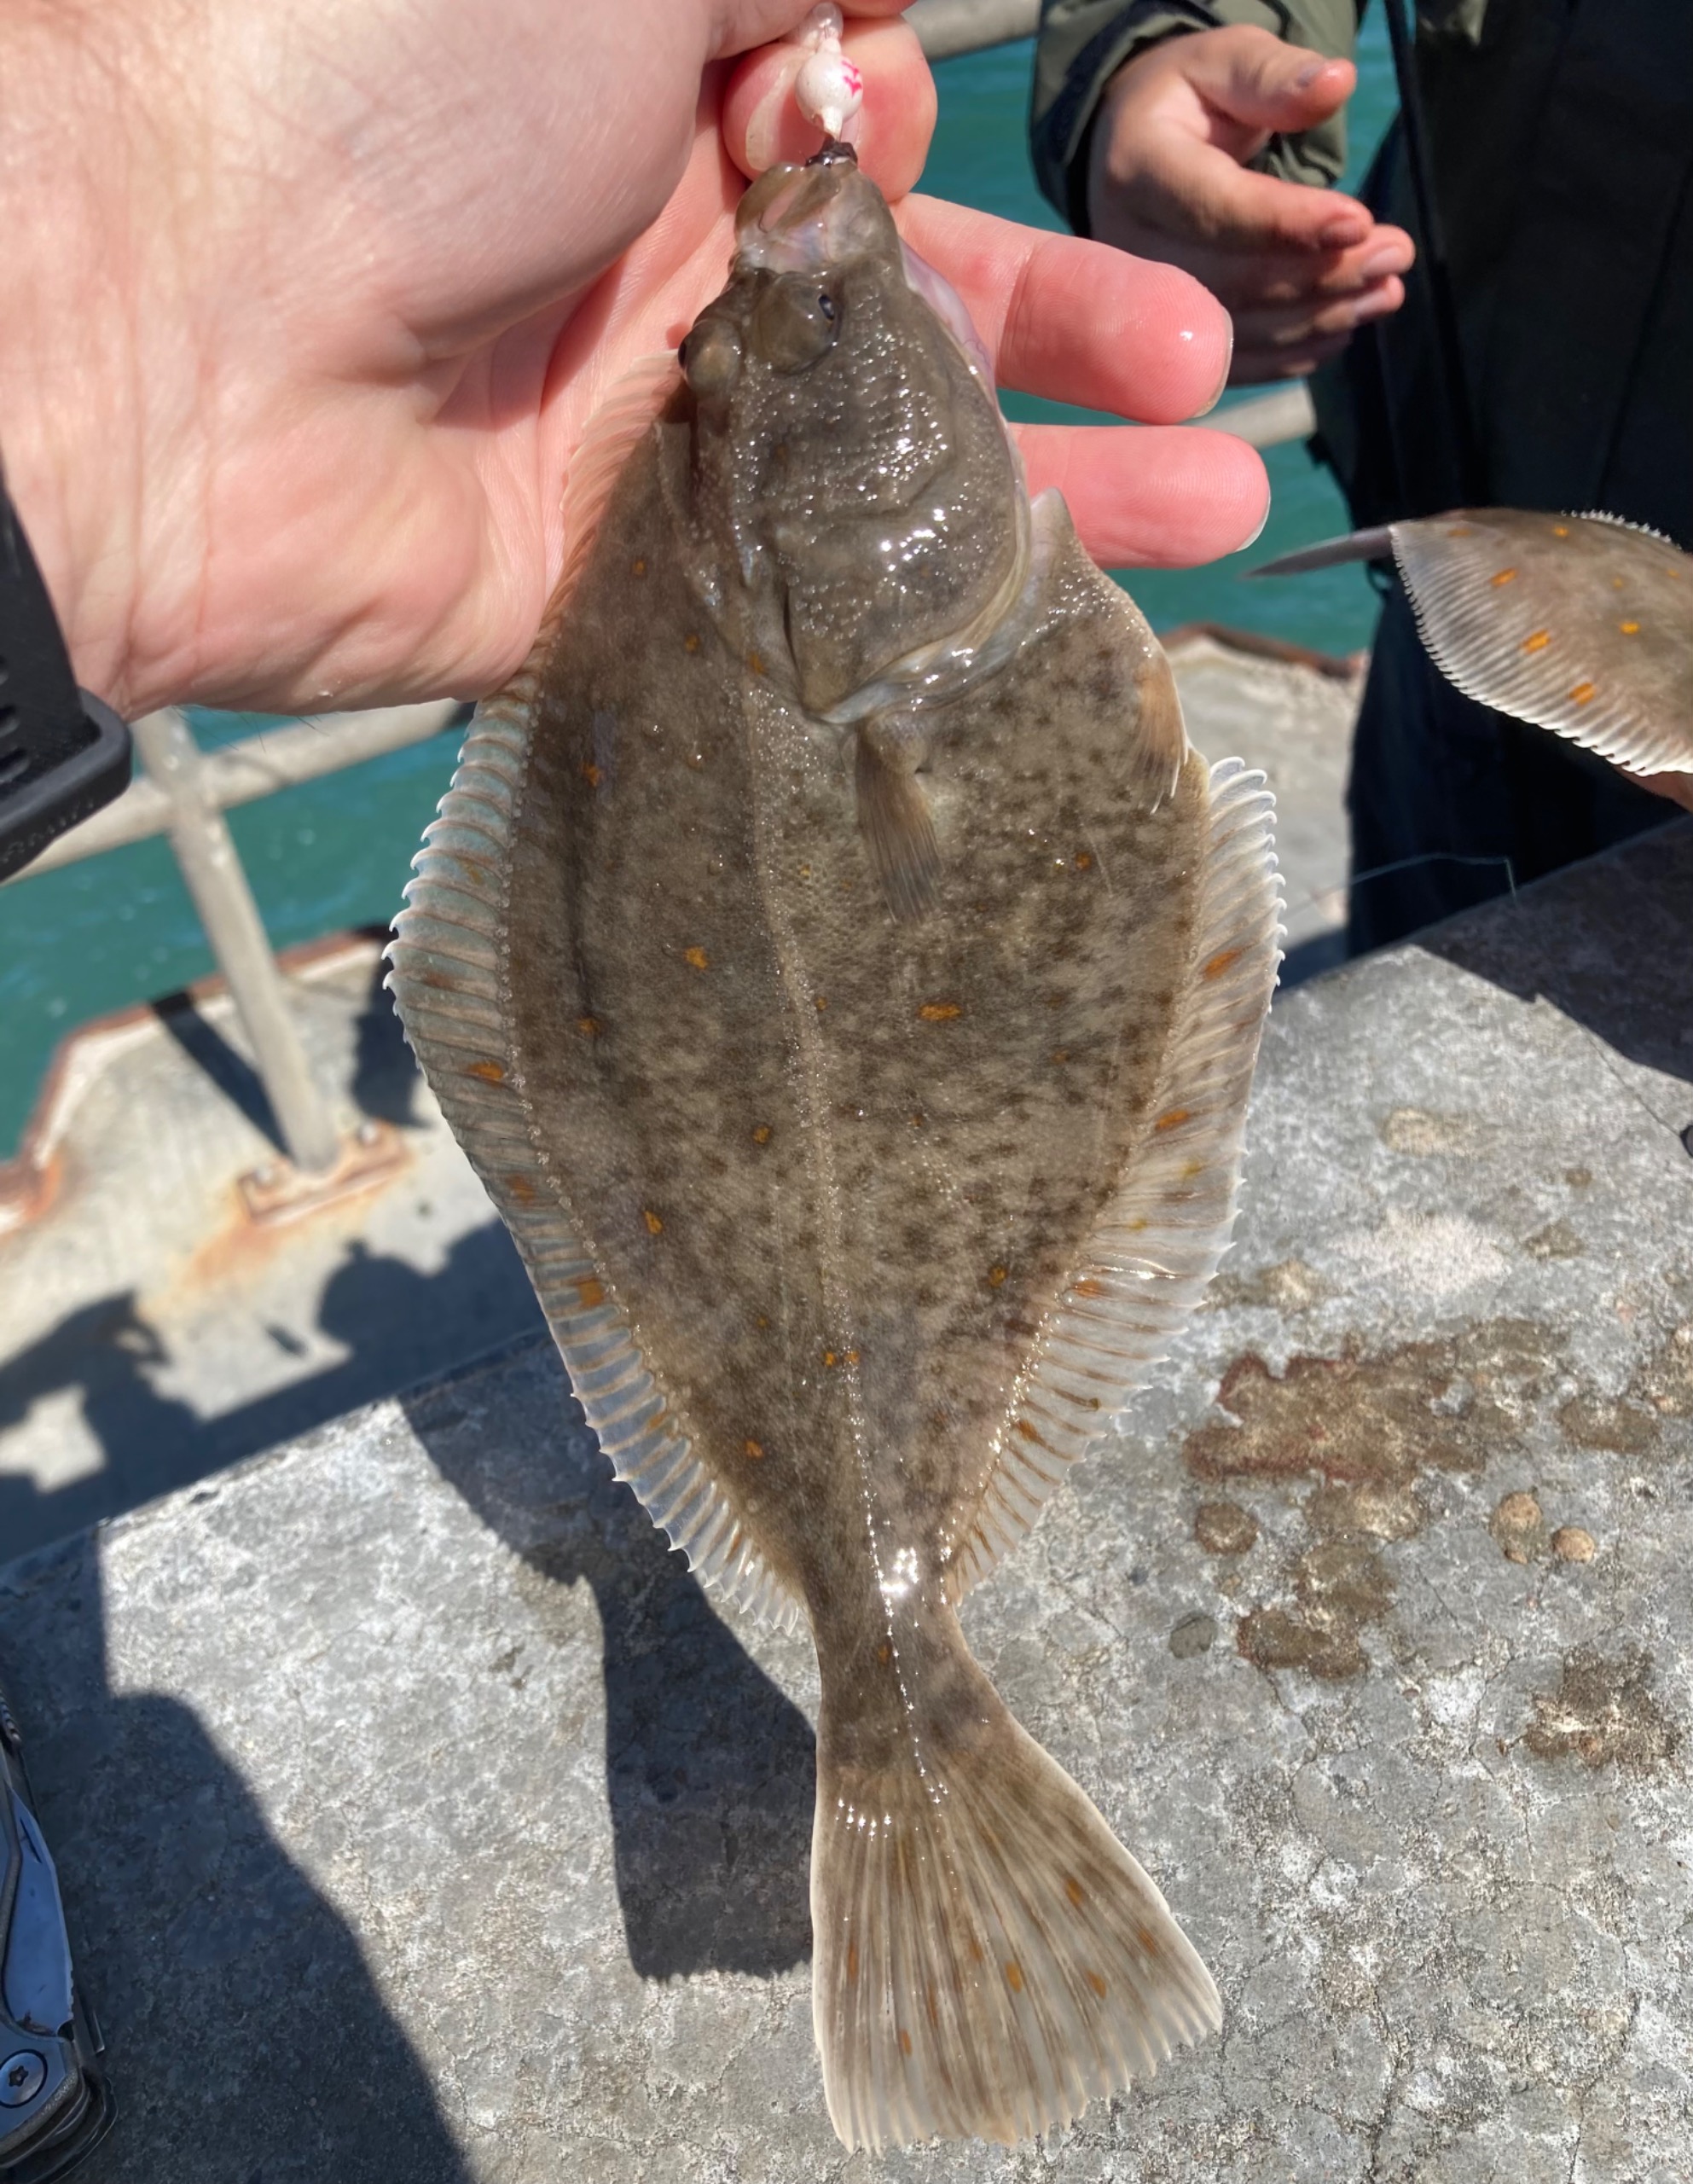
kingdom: Animalia
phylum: Chordata
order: Pleuronectiformes
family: Pleuronectidae
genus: Platichthys
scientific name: Platichthys flesus
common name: Skrubbe
